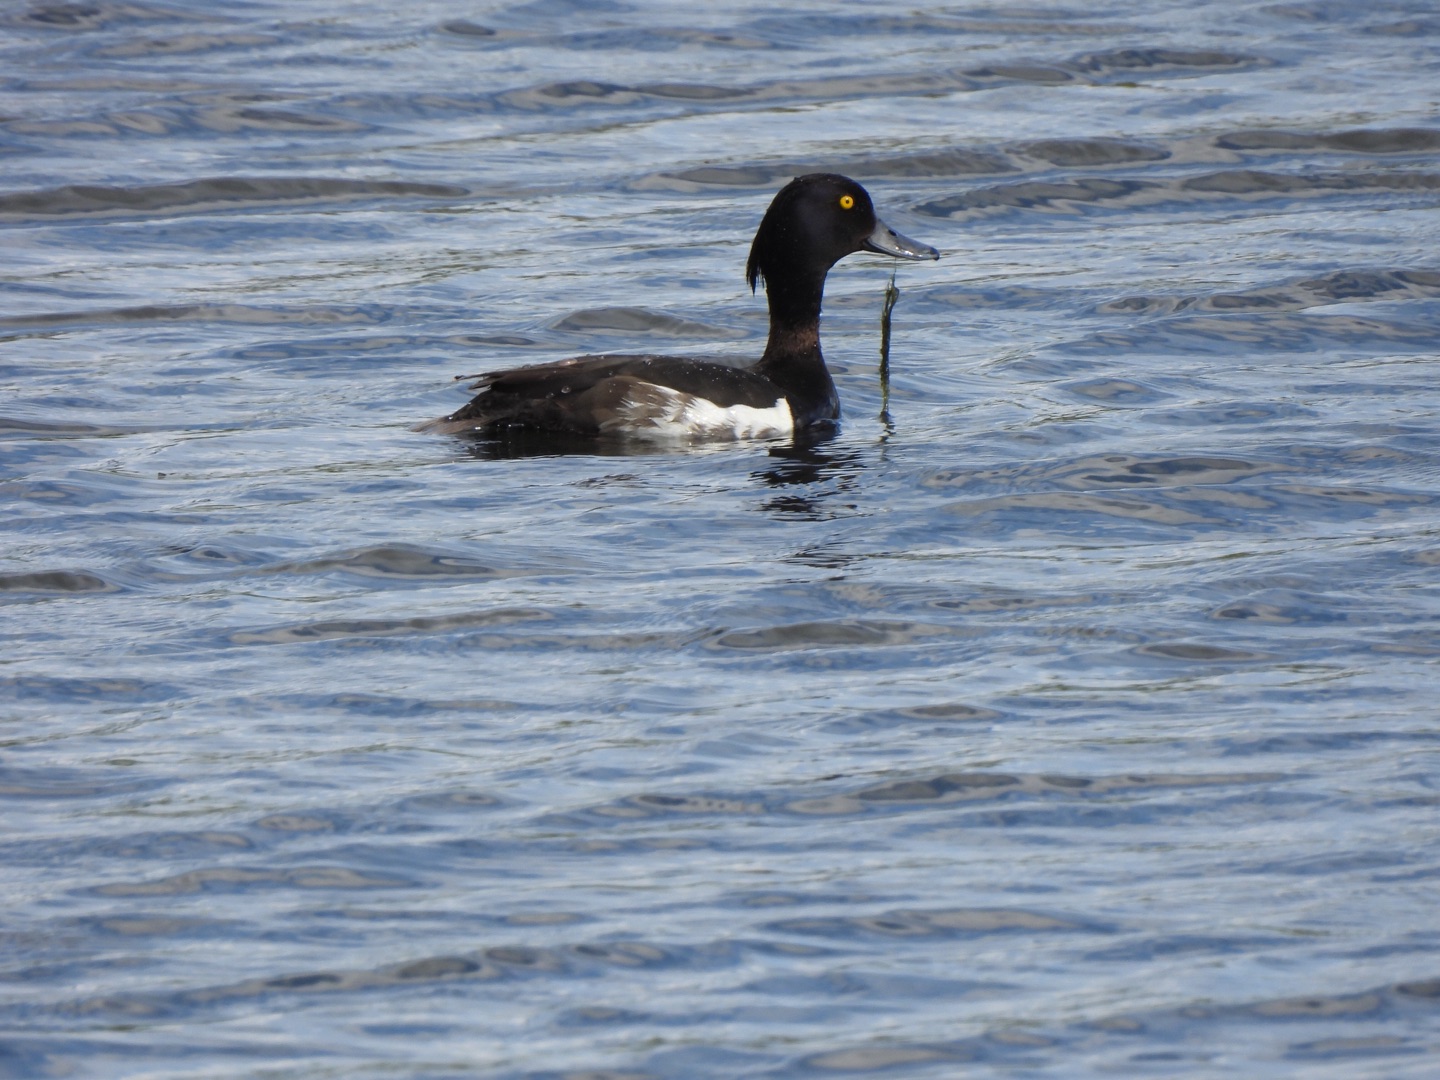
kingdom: Animalia
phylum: Chordata
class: Aves
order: Anseriformes
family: Anatidae
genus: Aythya
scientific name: Aythya fuligula
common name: Troldand
